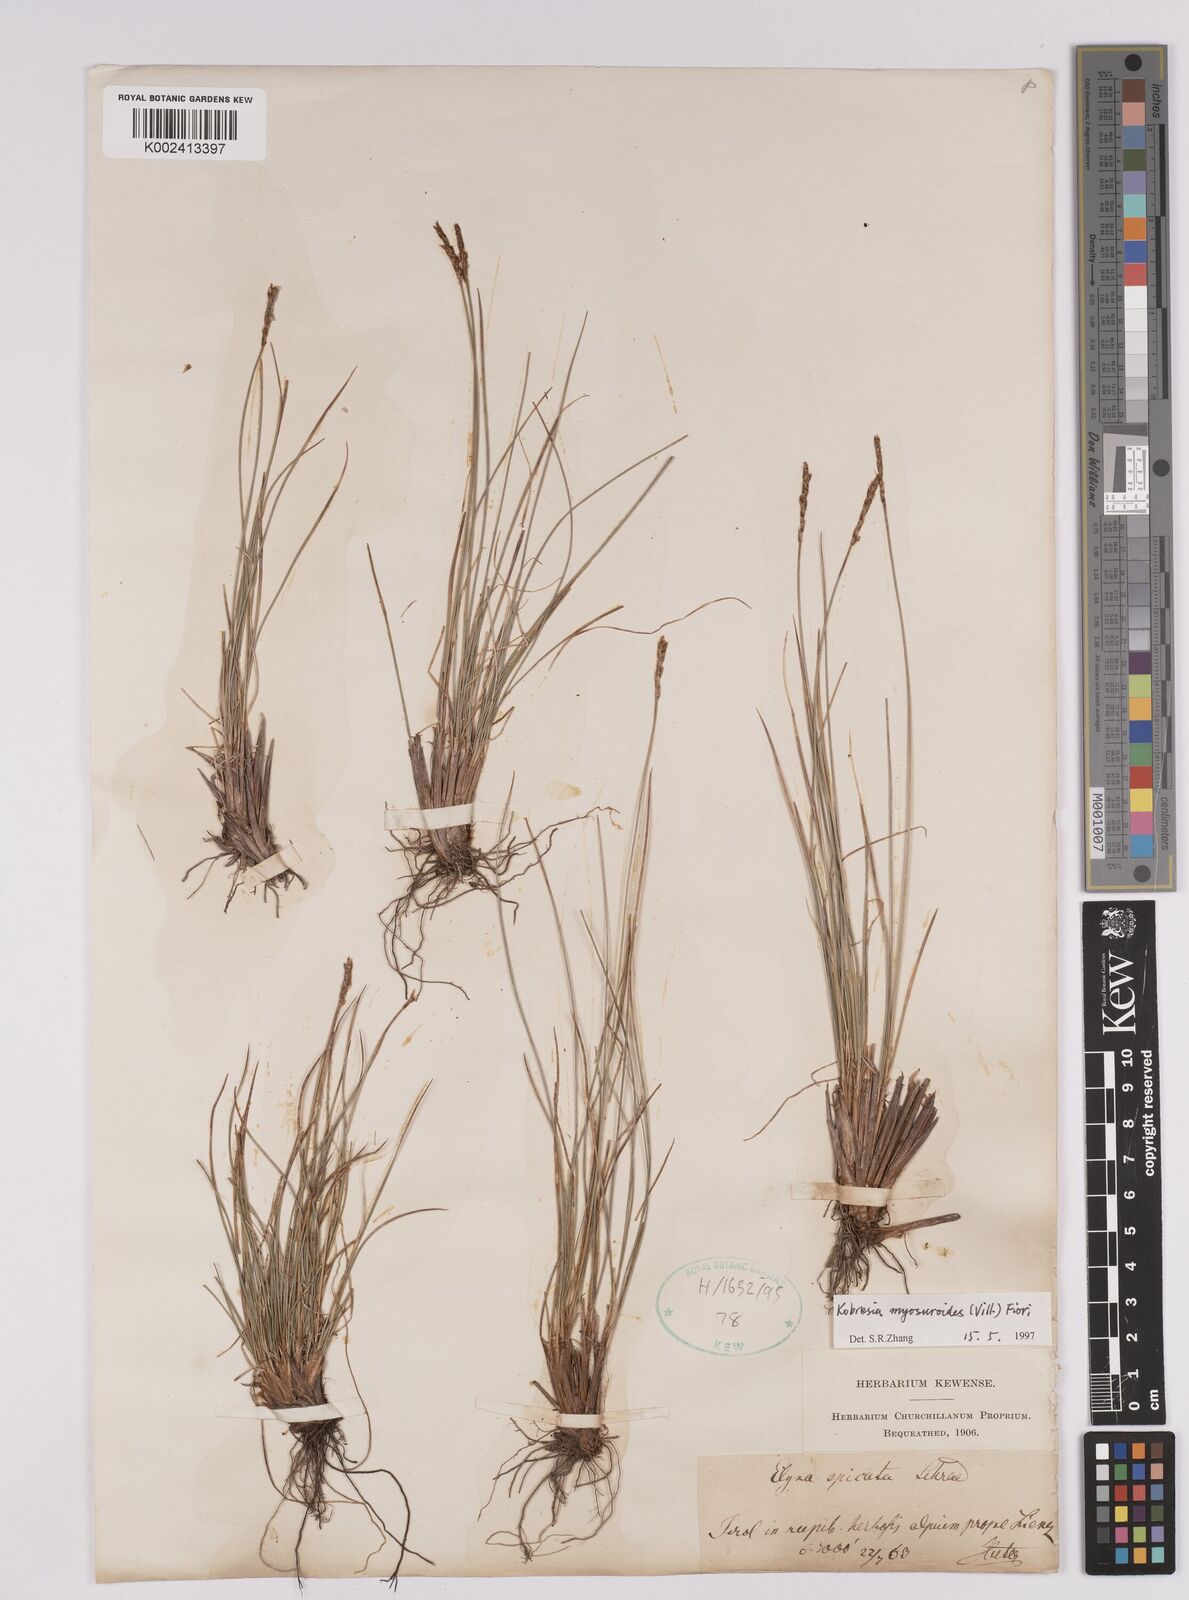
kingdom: Plantae
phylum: Tracheophyta
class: Liliopsida
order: Poales
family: Cyperaceae
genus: Carex
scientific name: Carex myosuroides
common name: Bellard's bog sedge
